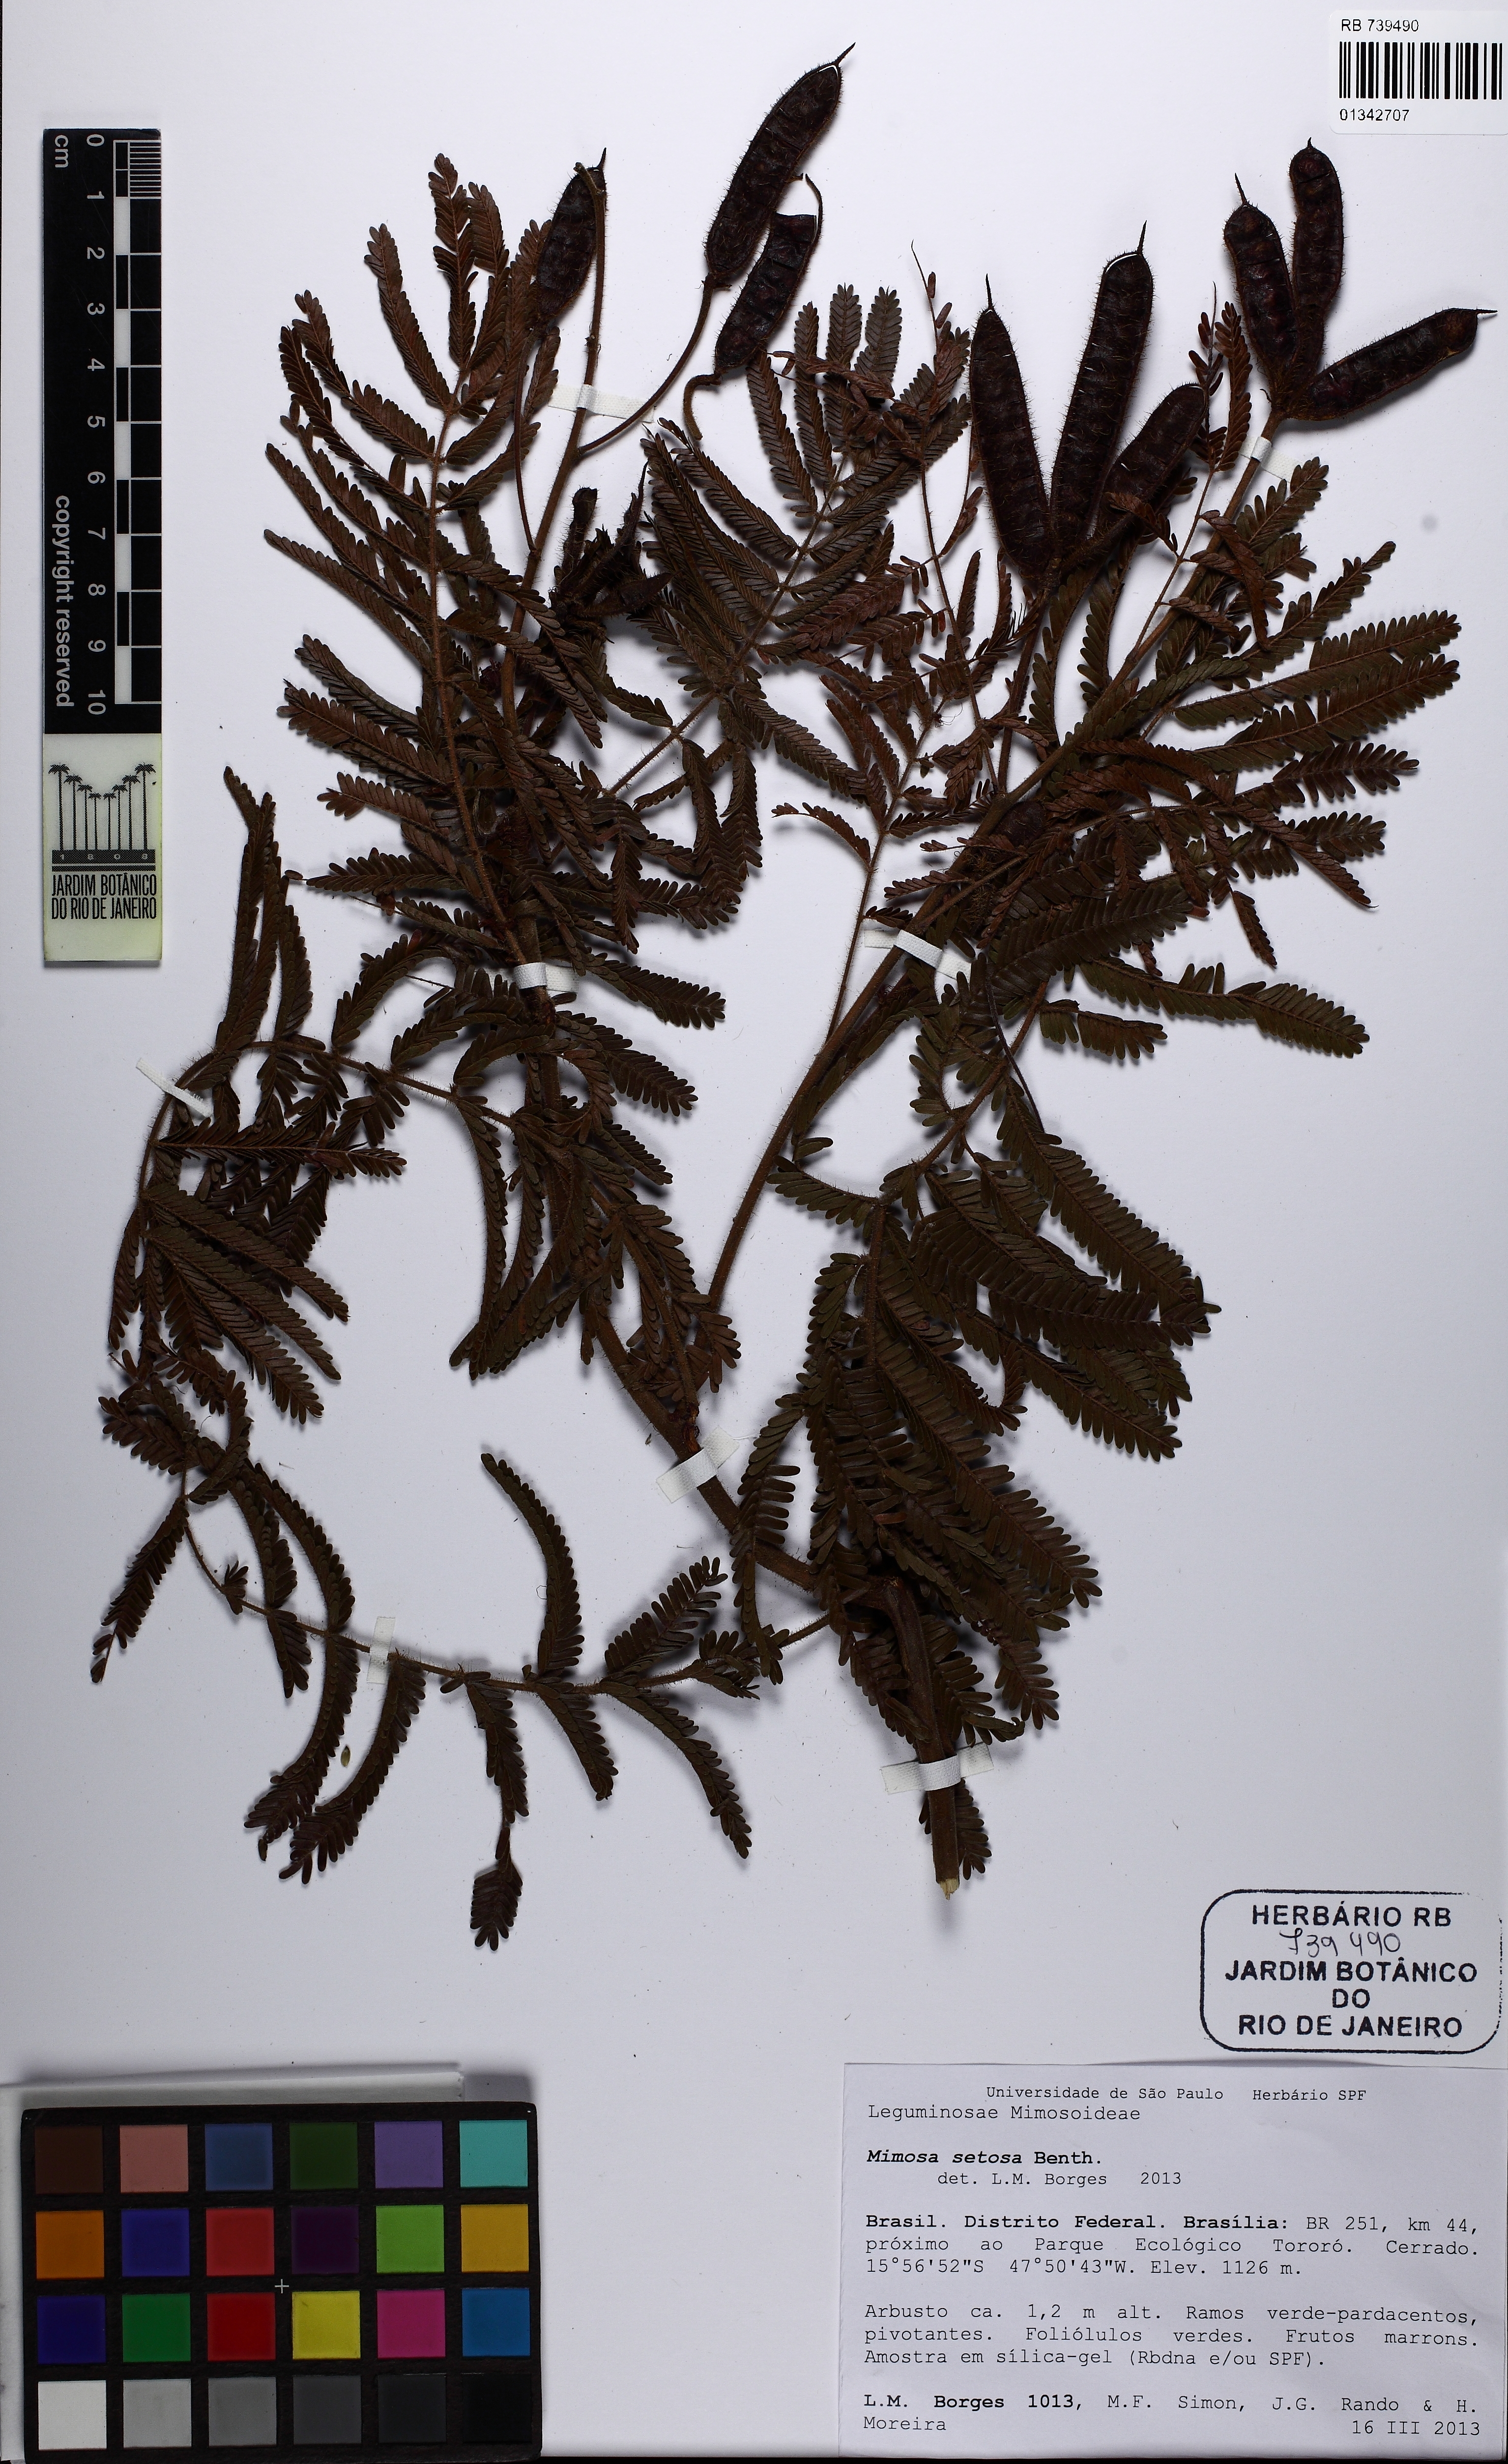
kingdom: Plantae
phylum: Tracheophyta
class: Magnoliopsida
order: Fabales
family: Fabaceae
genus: Mimosa
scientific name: Mimosa setosa
